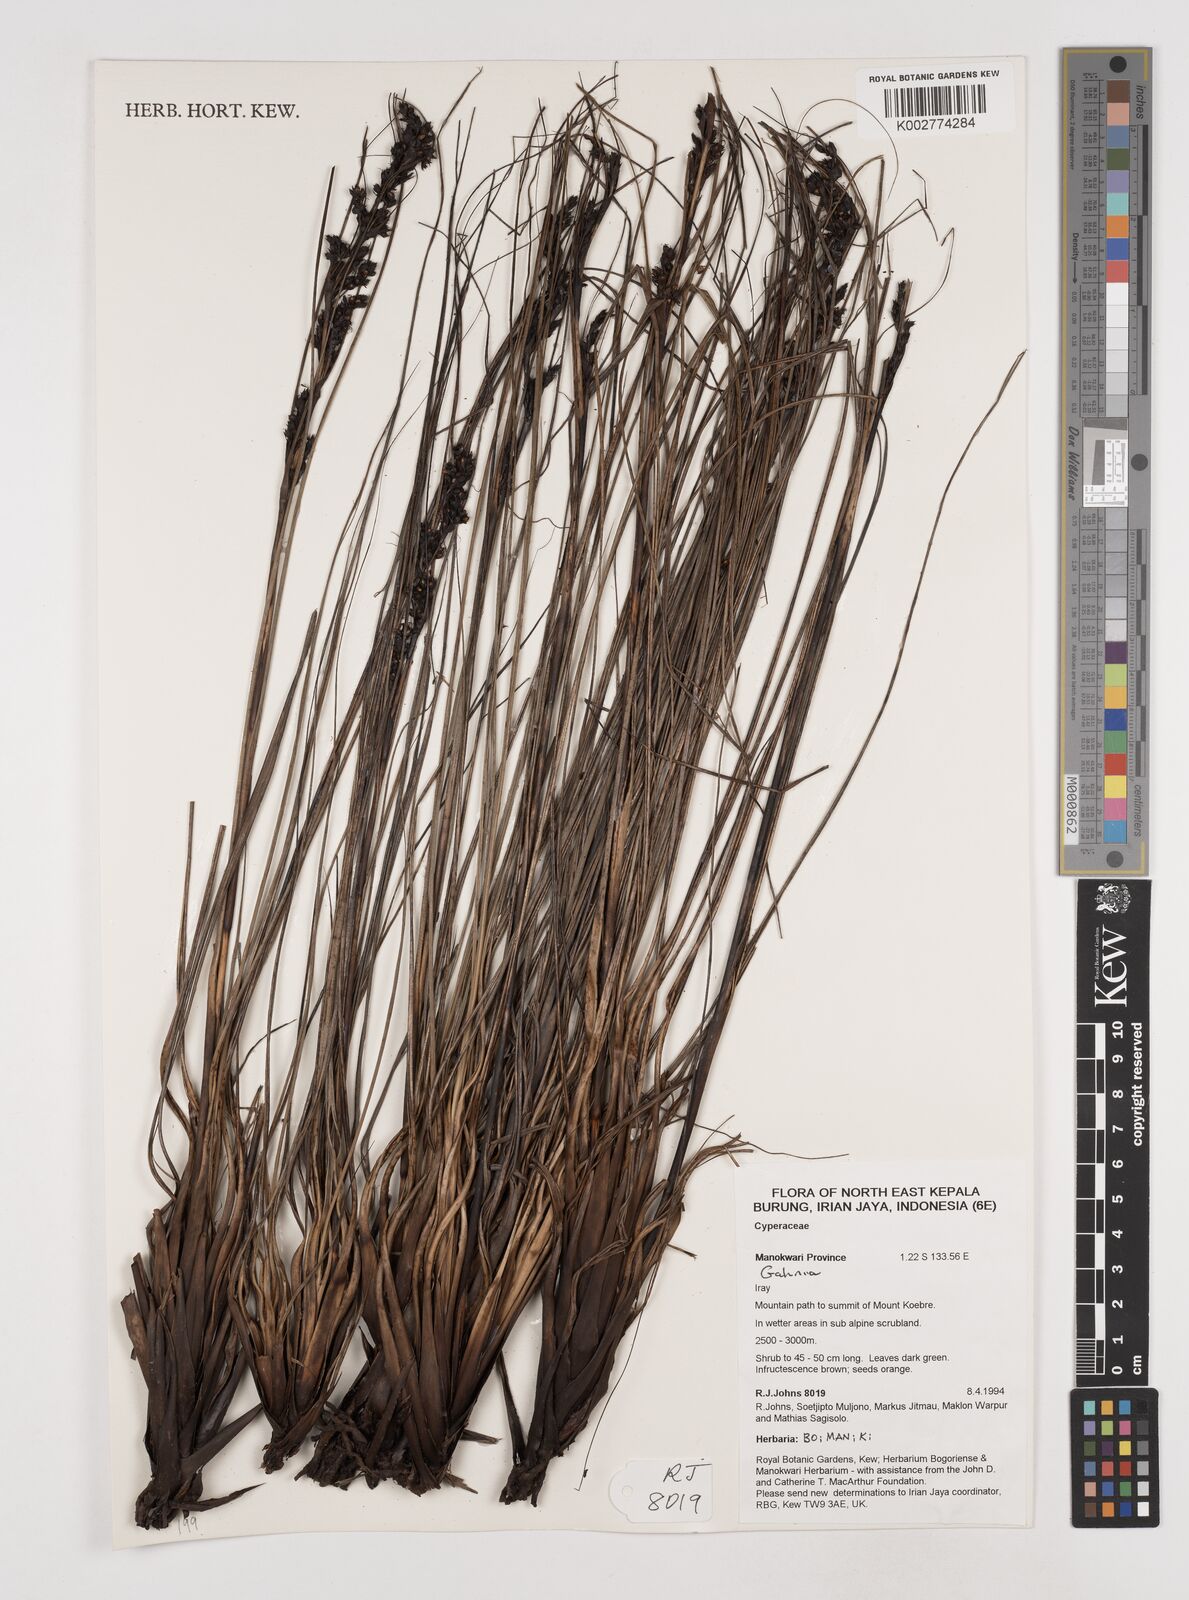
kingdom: Plantae
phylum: Tracheophyta
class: Liliopsida
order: Poales
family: Cyperaceae
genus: Gahnia
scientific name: Gahnia
